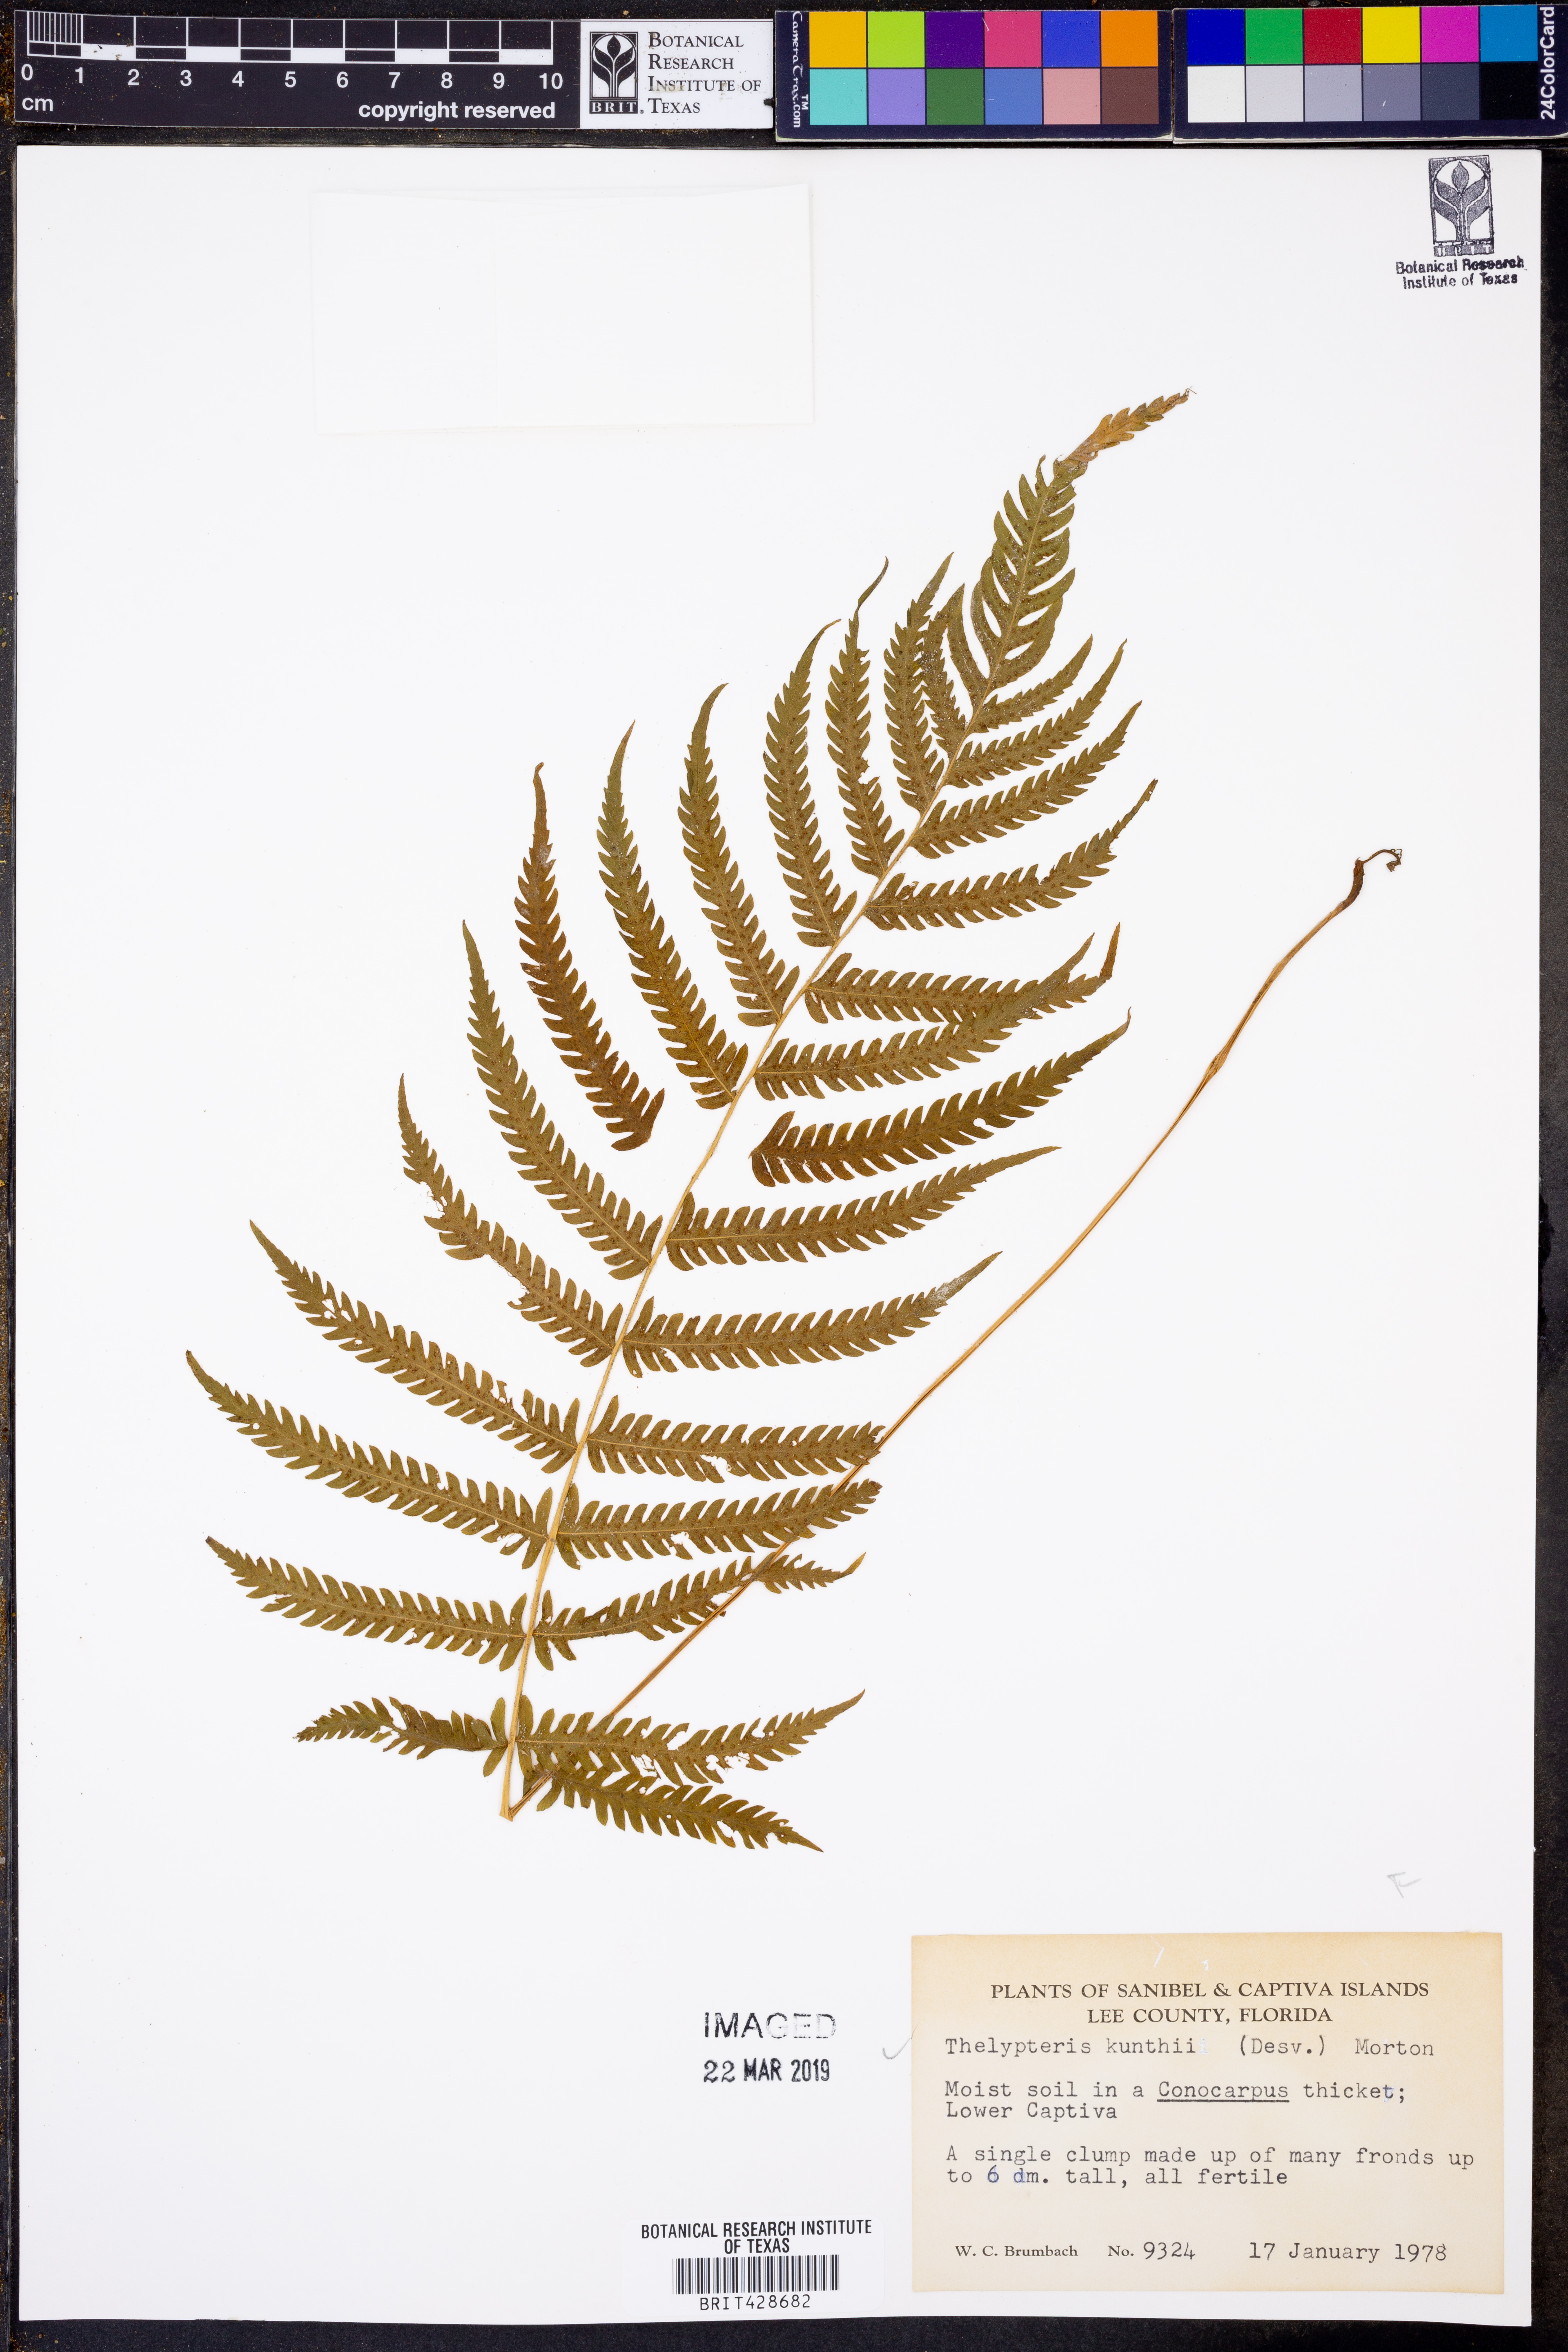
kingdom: Plantae
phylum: Tracheophyta
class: Polypodiopsida
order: Polypodiales
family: Thelypteridaceae
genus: Pelazoneuron
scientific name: Pelazoneuron kunthii
